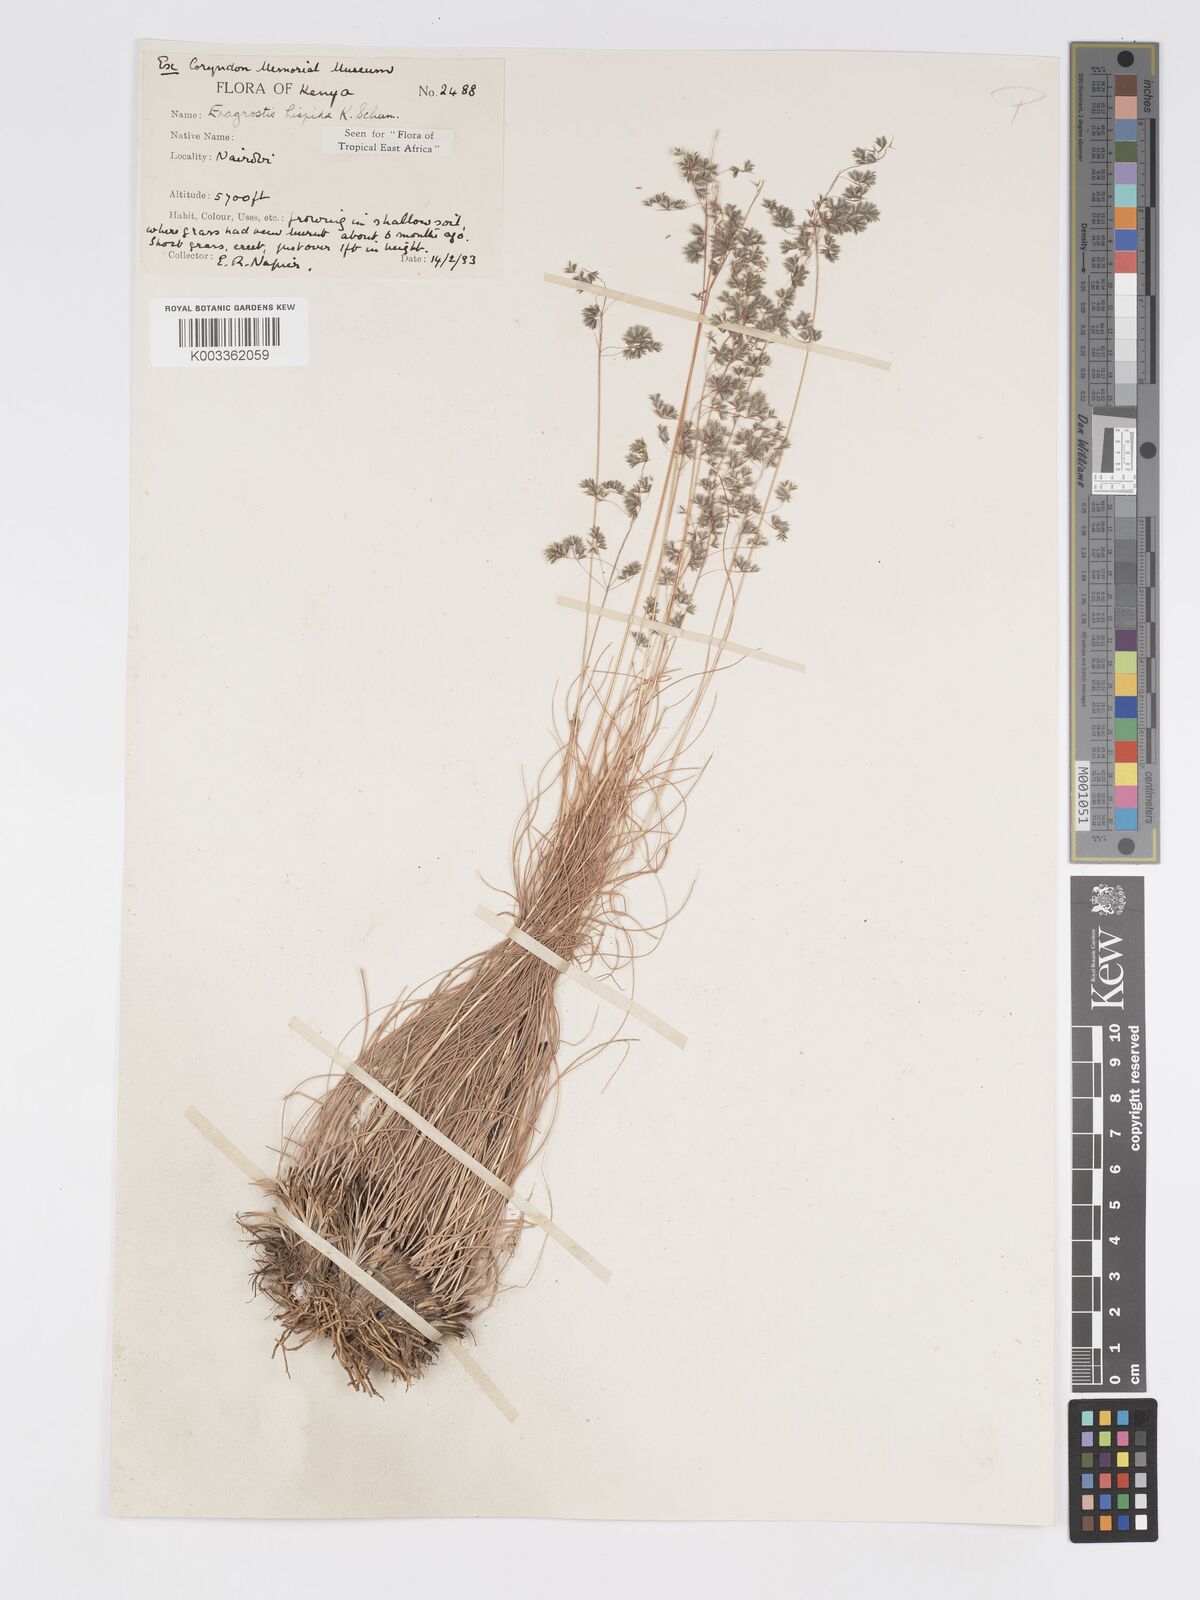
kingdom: Plantae
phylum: Tracheophyta
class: Liliopsida
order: Poales
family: Poaceae
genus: Eragrostis
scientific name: Eragrostis hispida
